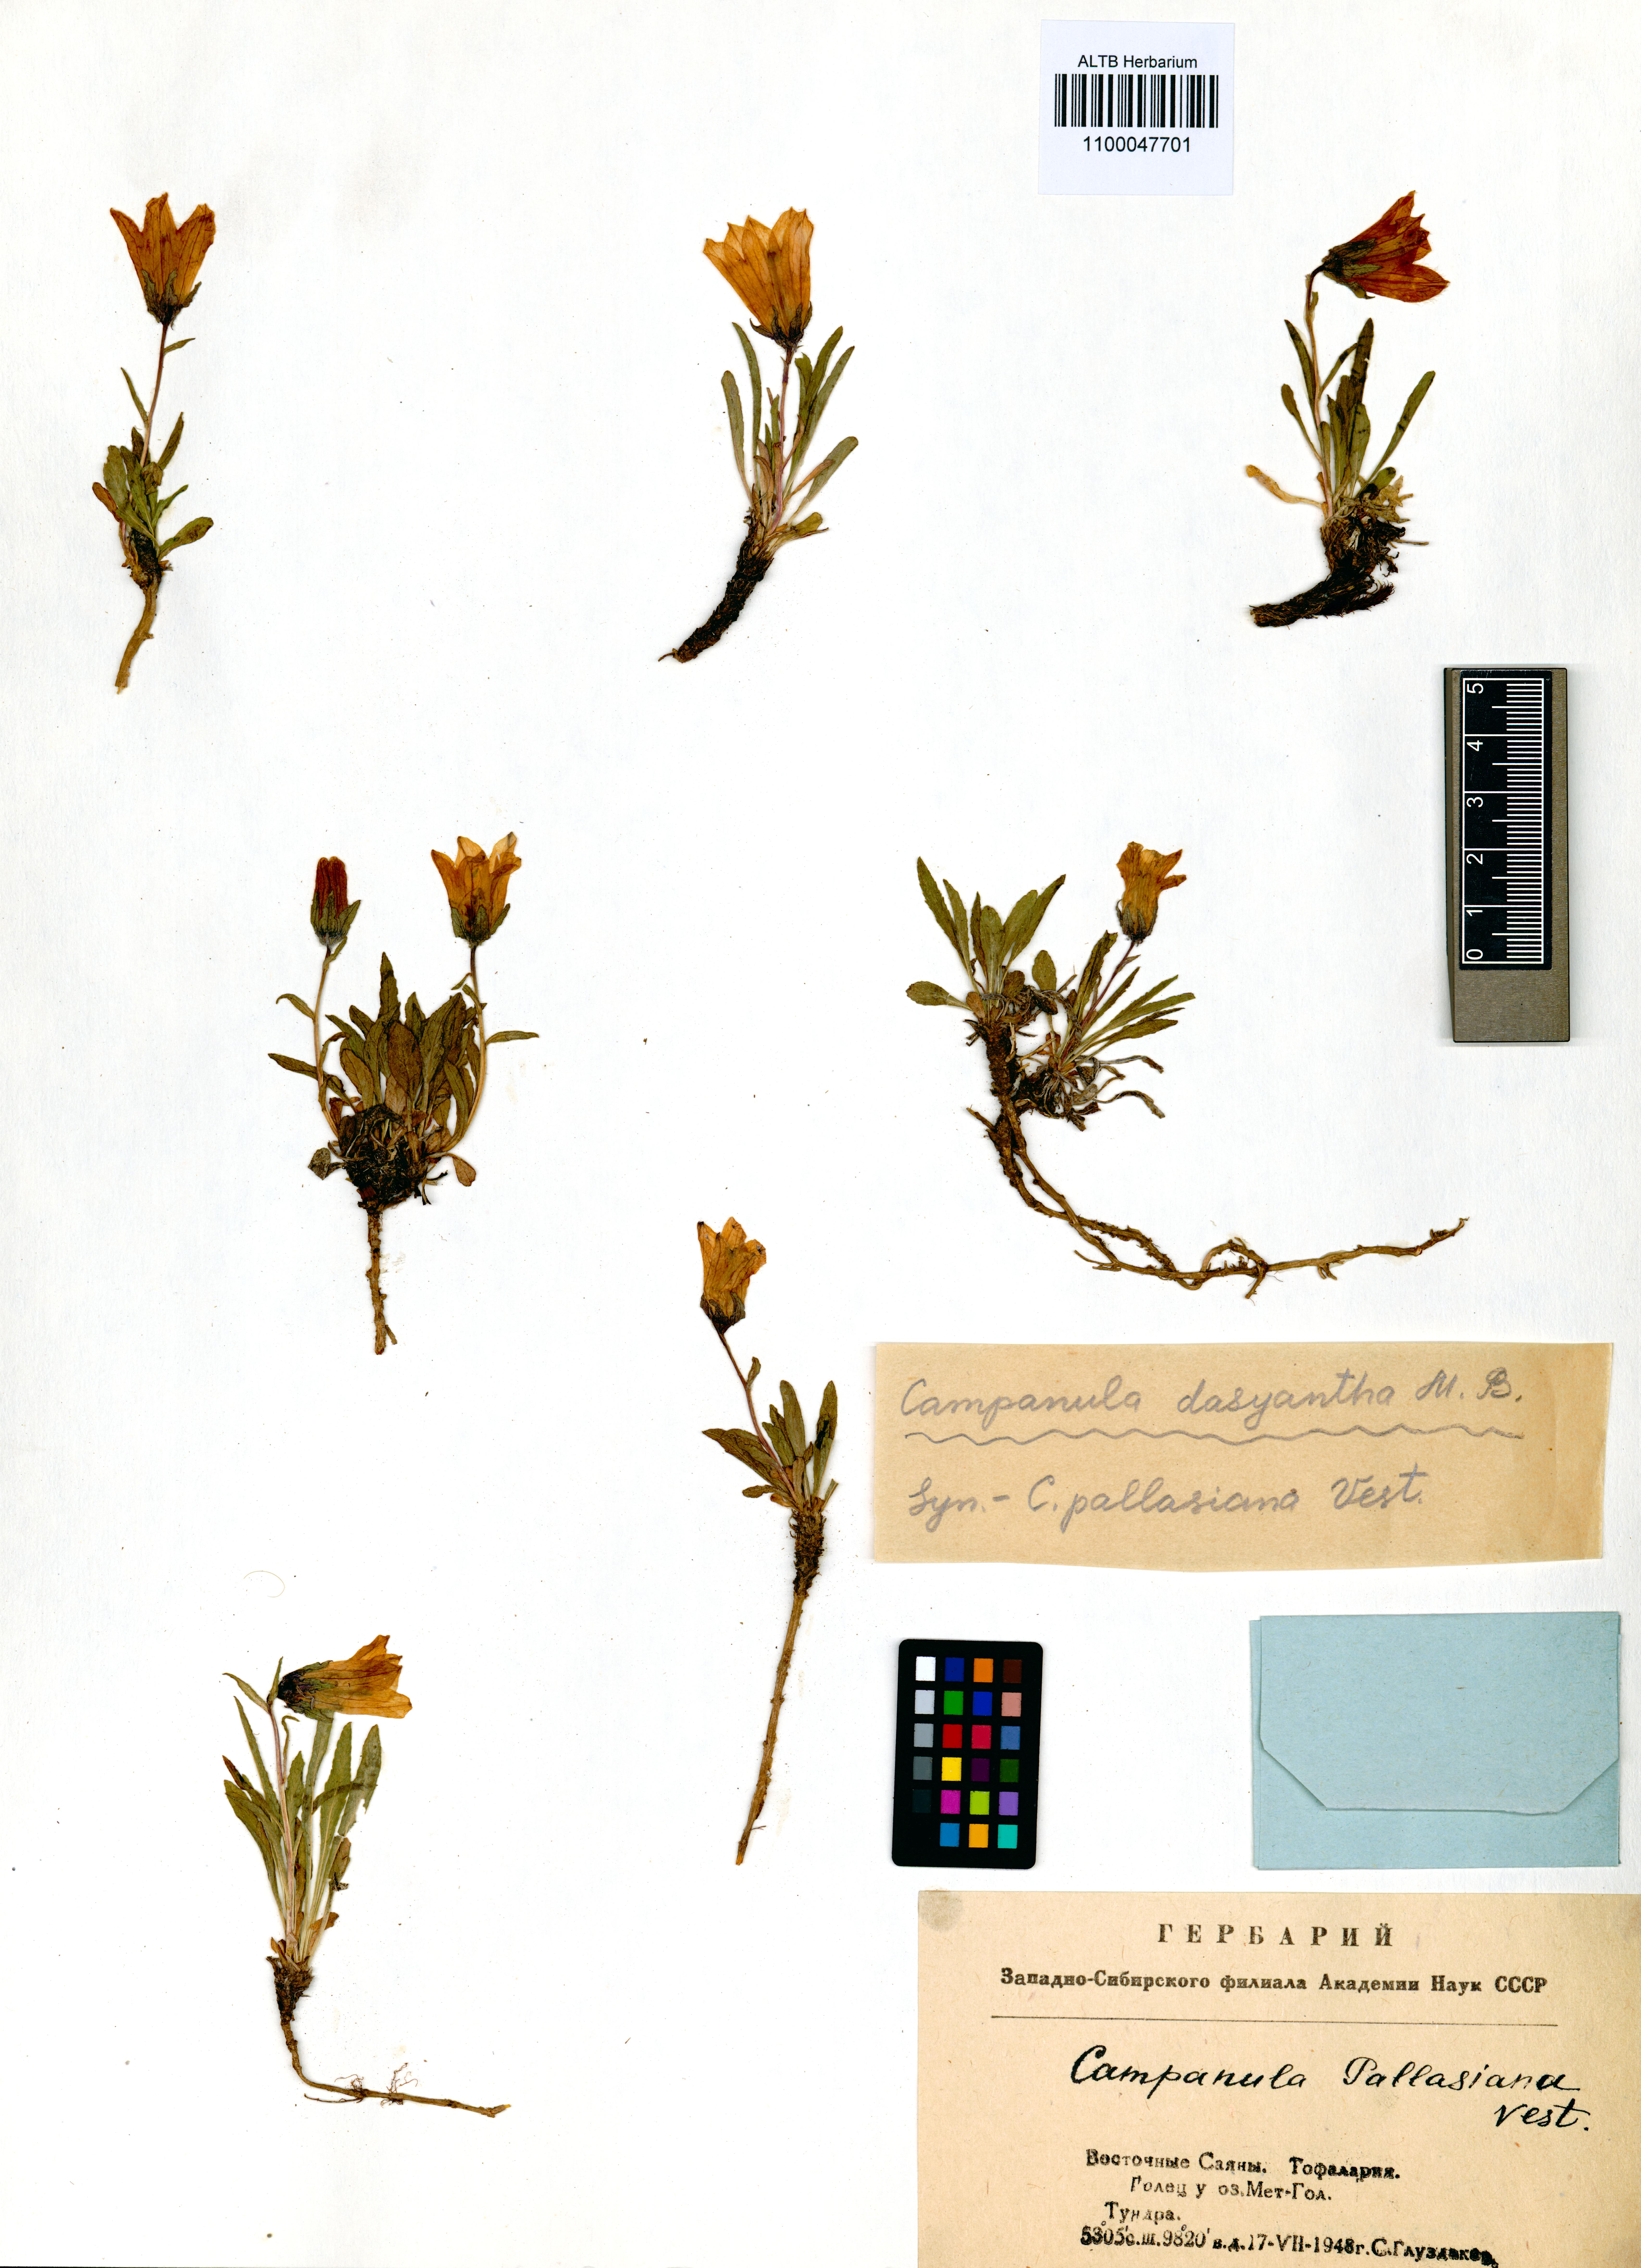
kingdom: Plantae
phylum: Tracheophyta
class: Magnoliopsida
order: Asterales
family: Campanulaceae
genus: Campanula
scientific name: Campanula dasyantha
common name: Hairyflower bellflower
